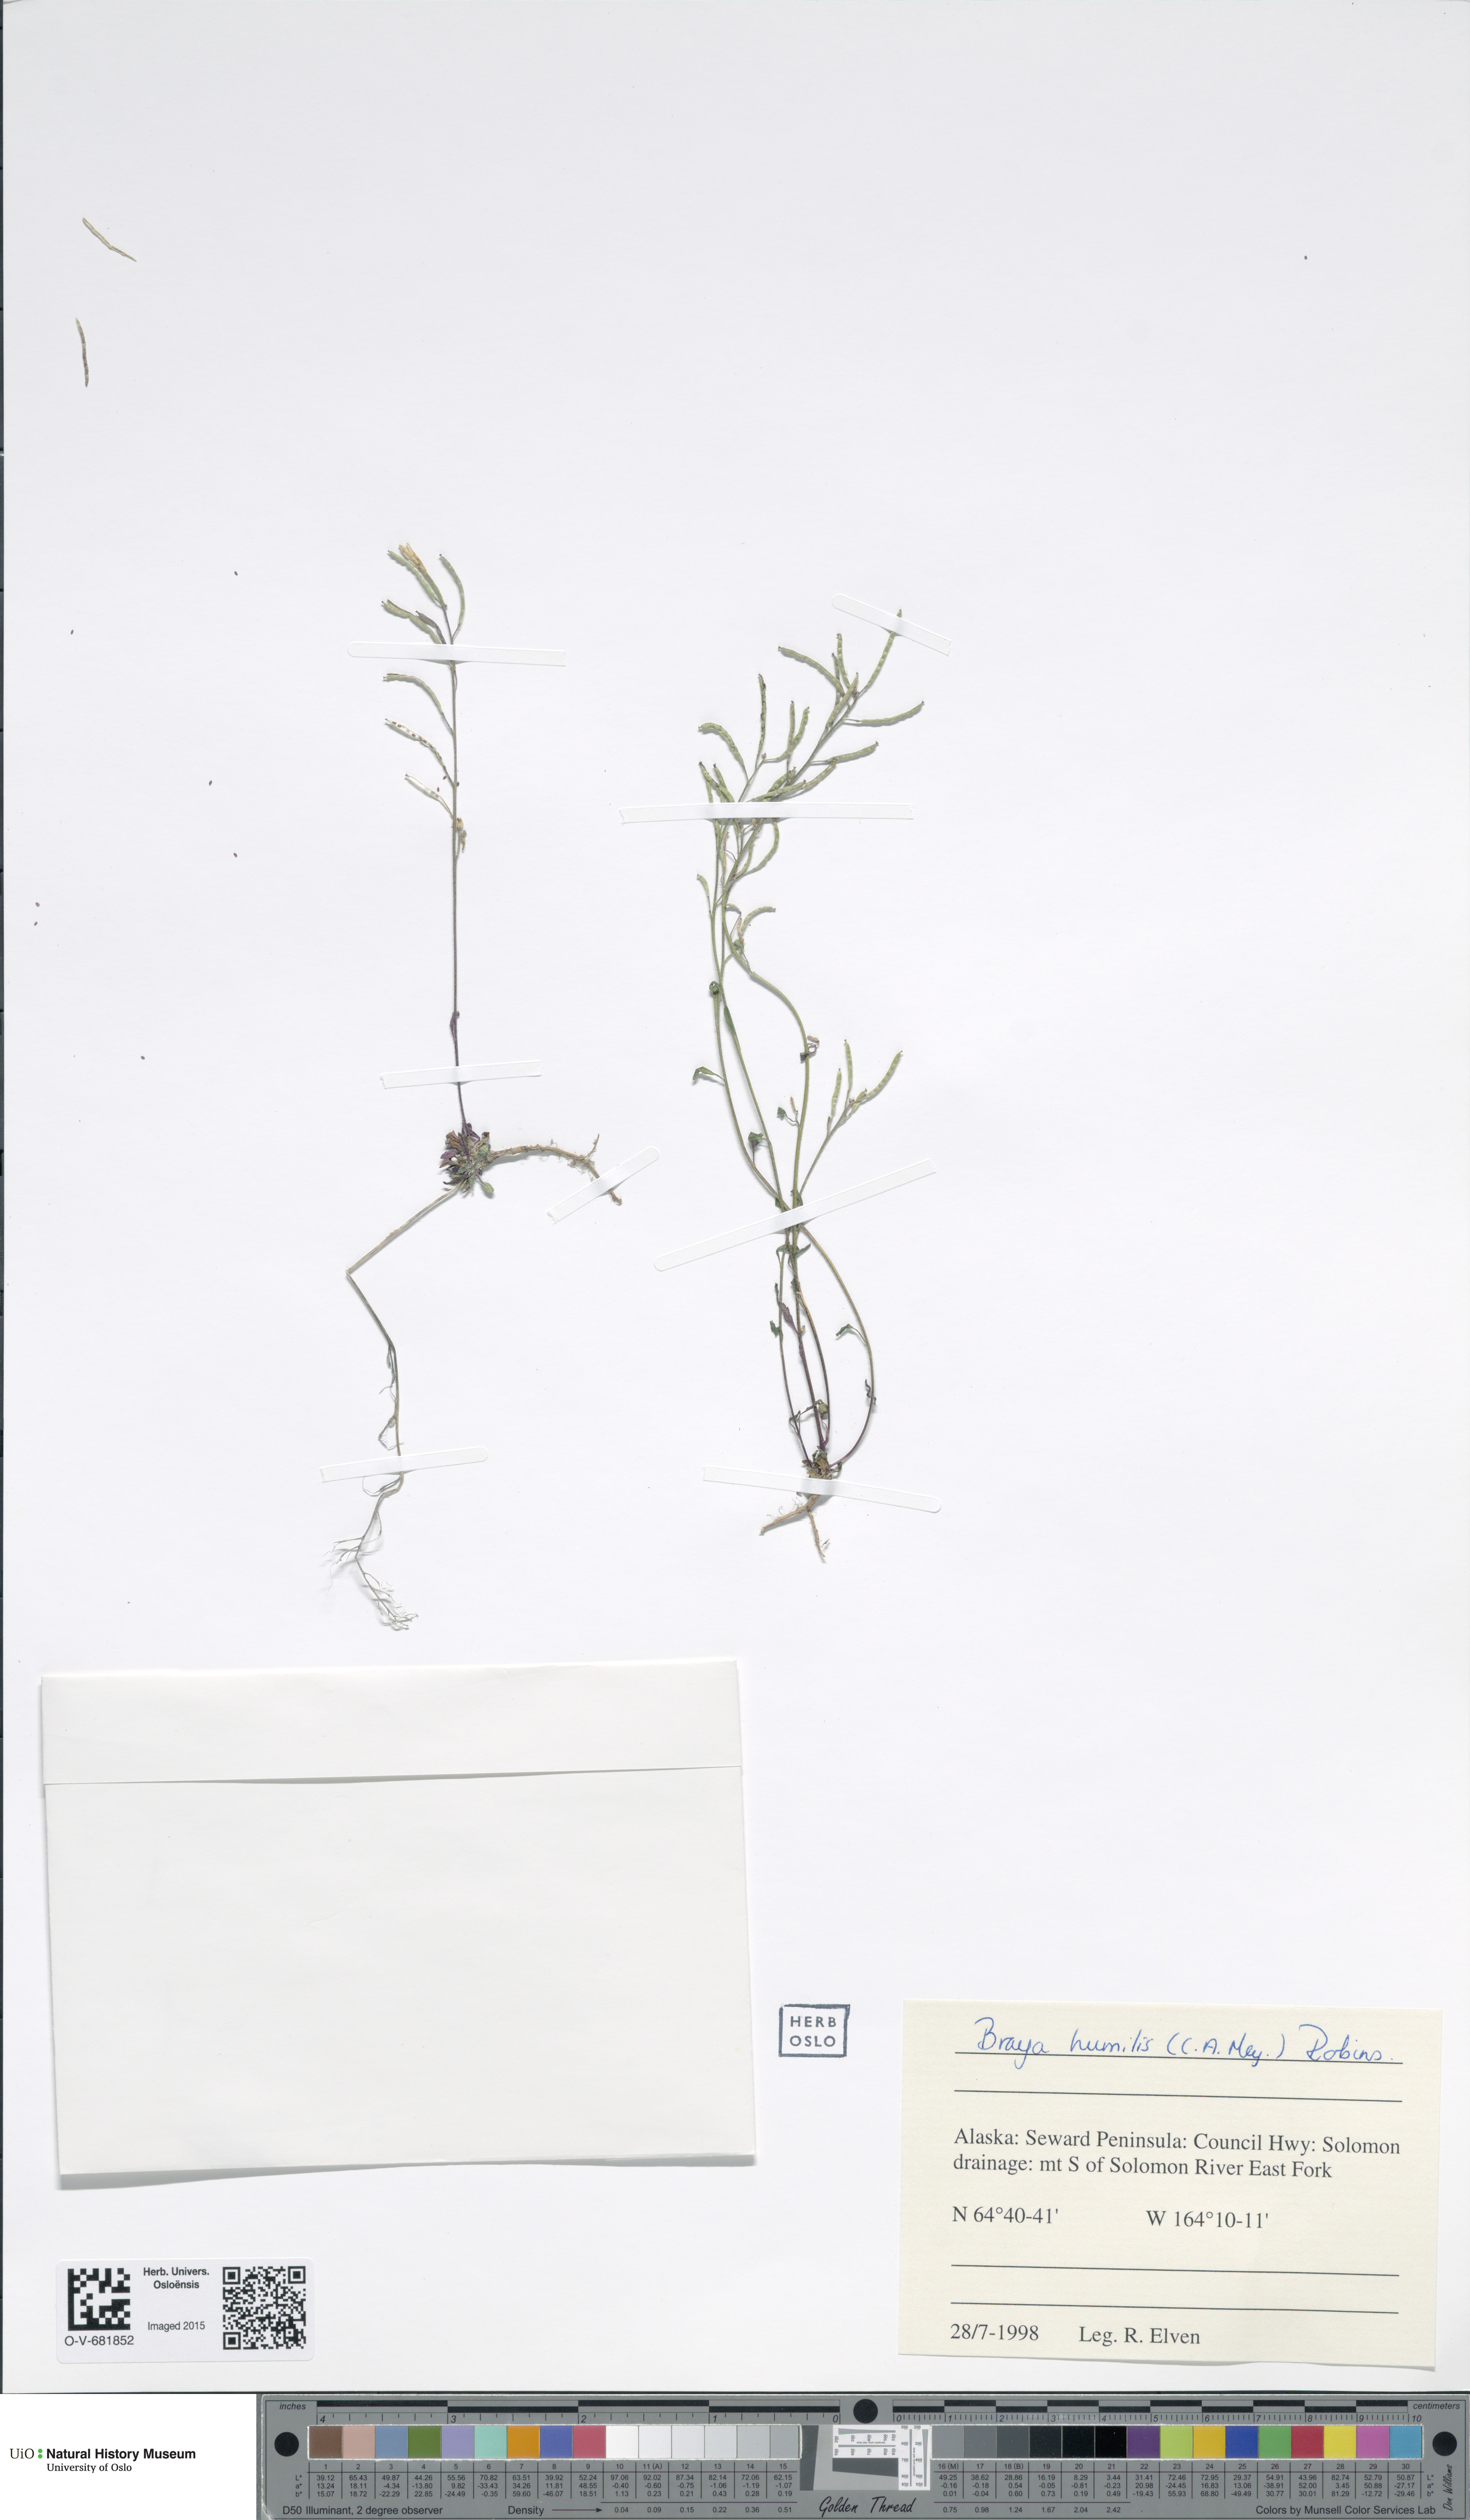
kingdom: Plantae
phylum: Tracheophyta
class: Magnoliopsida
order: Brassicales
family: Brassicaceae
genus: Braya
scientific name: Braya humilis
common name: Alpine northern rockcress
